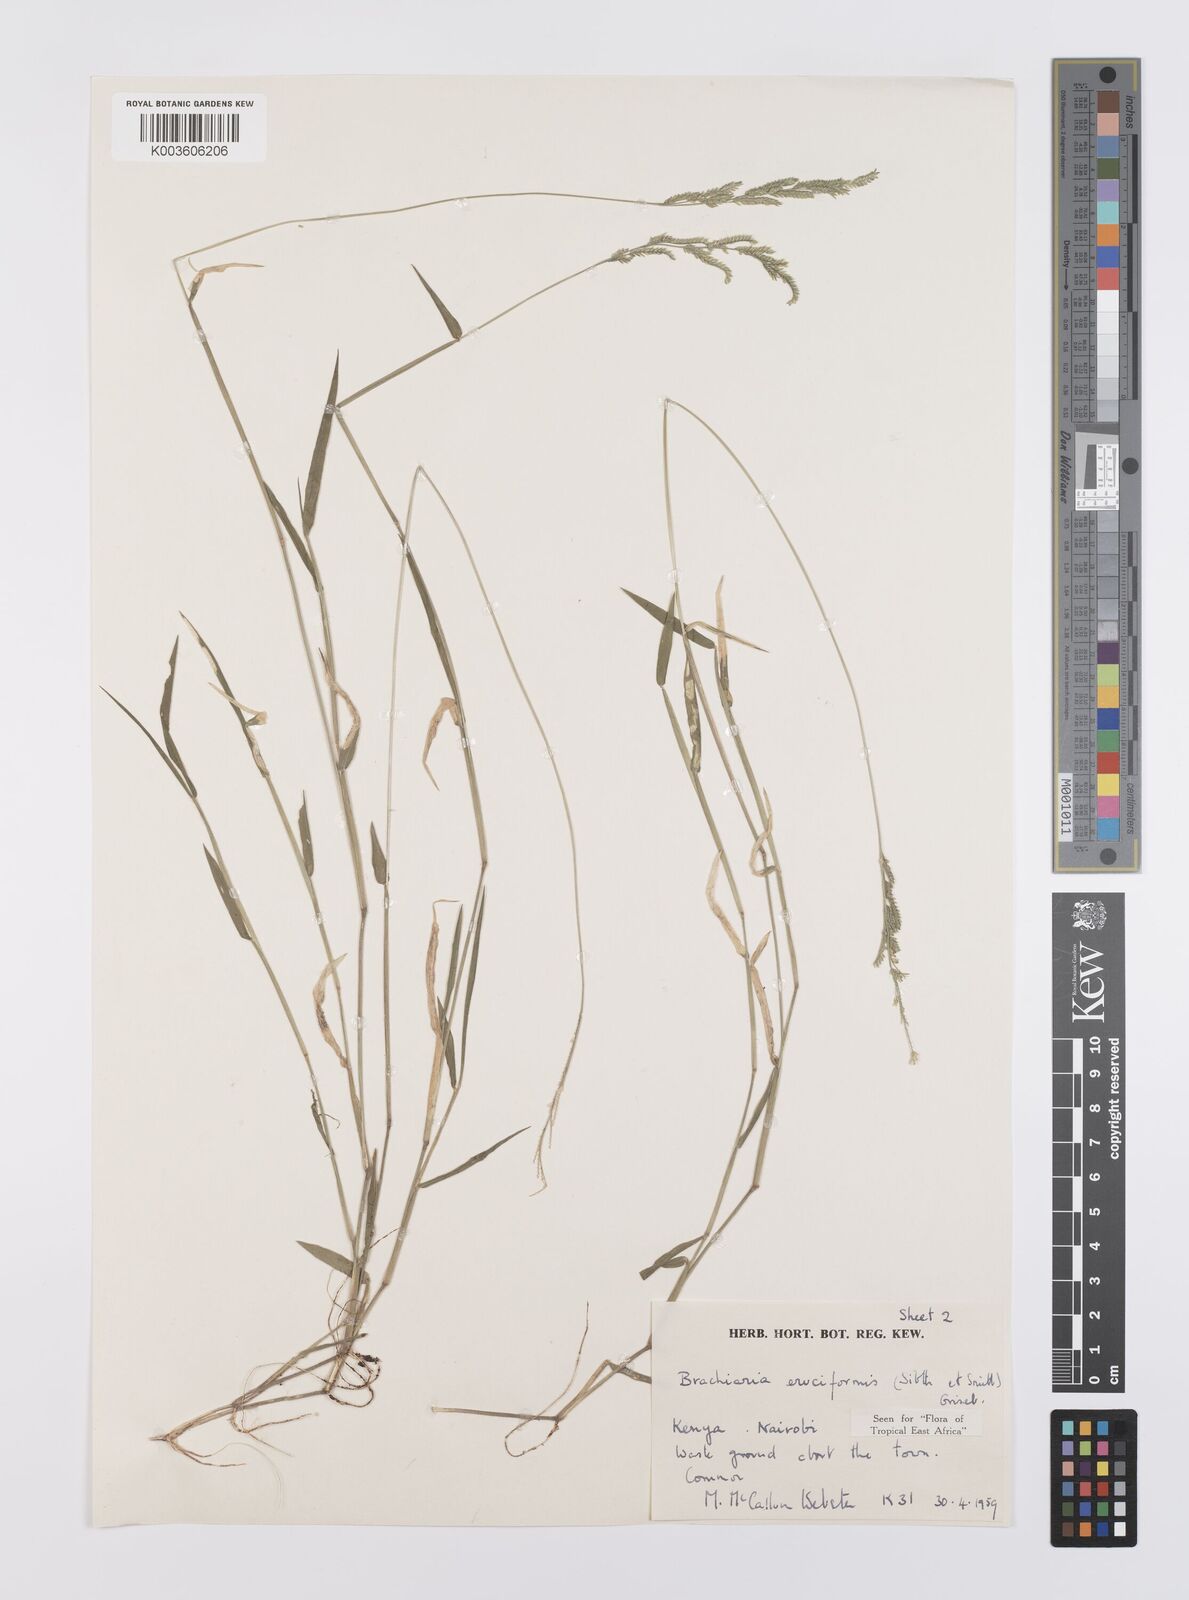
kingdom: Plantae
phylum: Tracheophyta
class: Liliopsida
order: Poales
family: Poaceae
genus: Moorochloa
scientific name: Moorochloa eruciformis
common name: Sweet signalgrass
